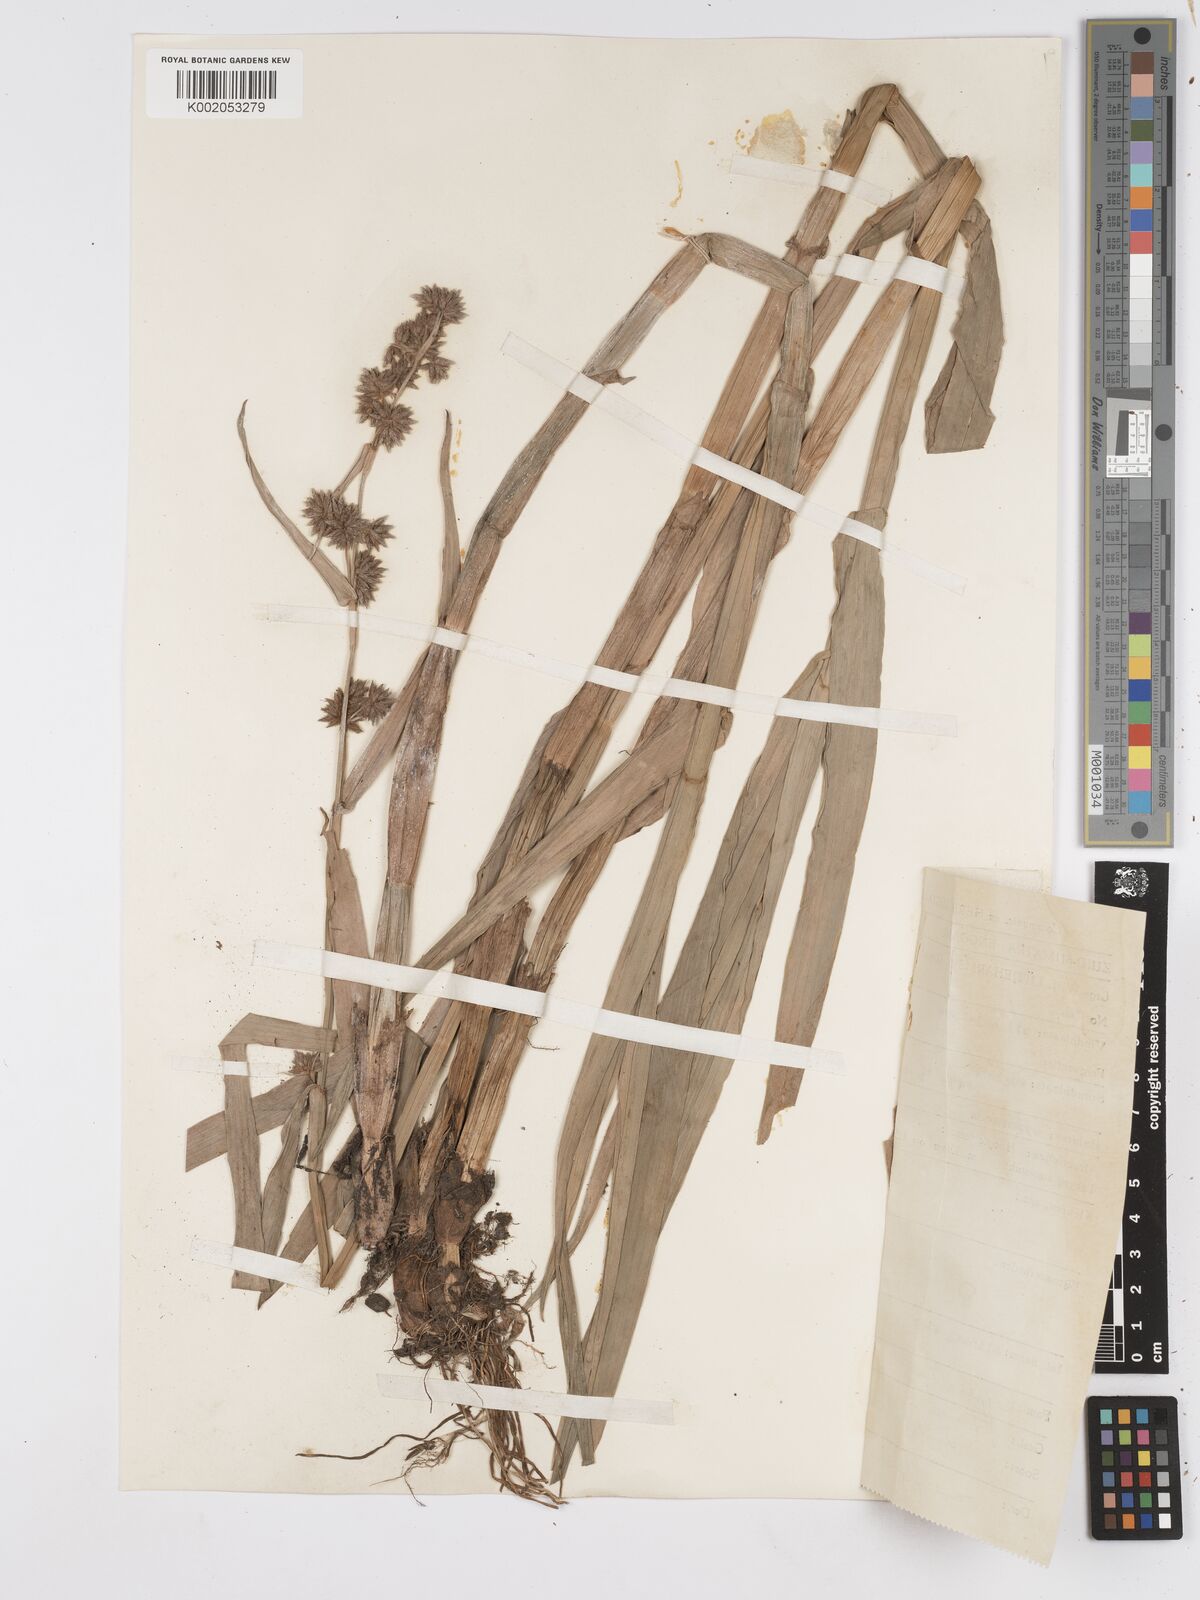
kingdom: Plantae
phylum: Tracheophyta
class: Liliopsida
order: Poales
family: Cyperaceae
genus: Fuirena
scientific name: Fuirena umbellata
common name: Yefen
